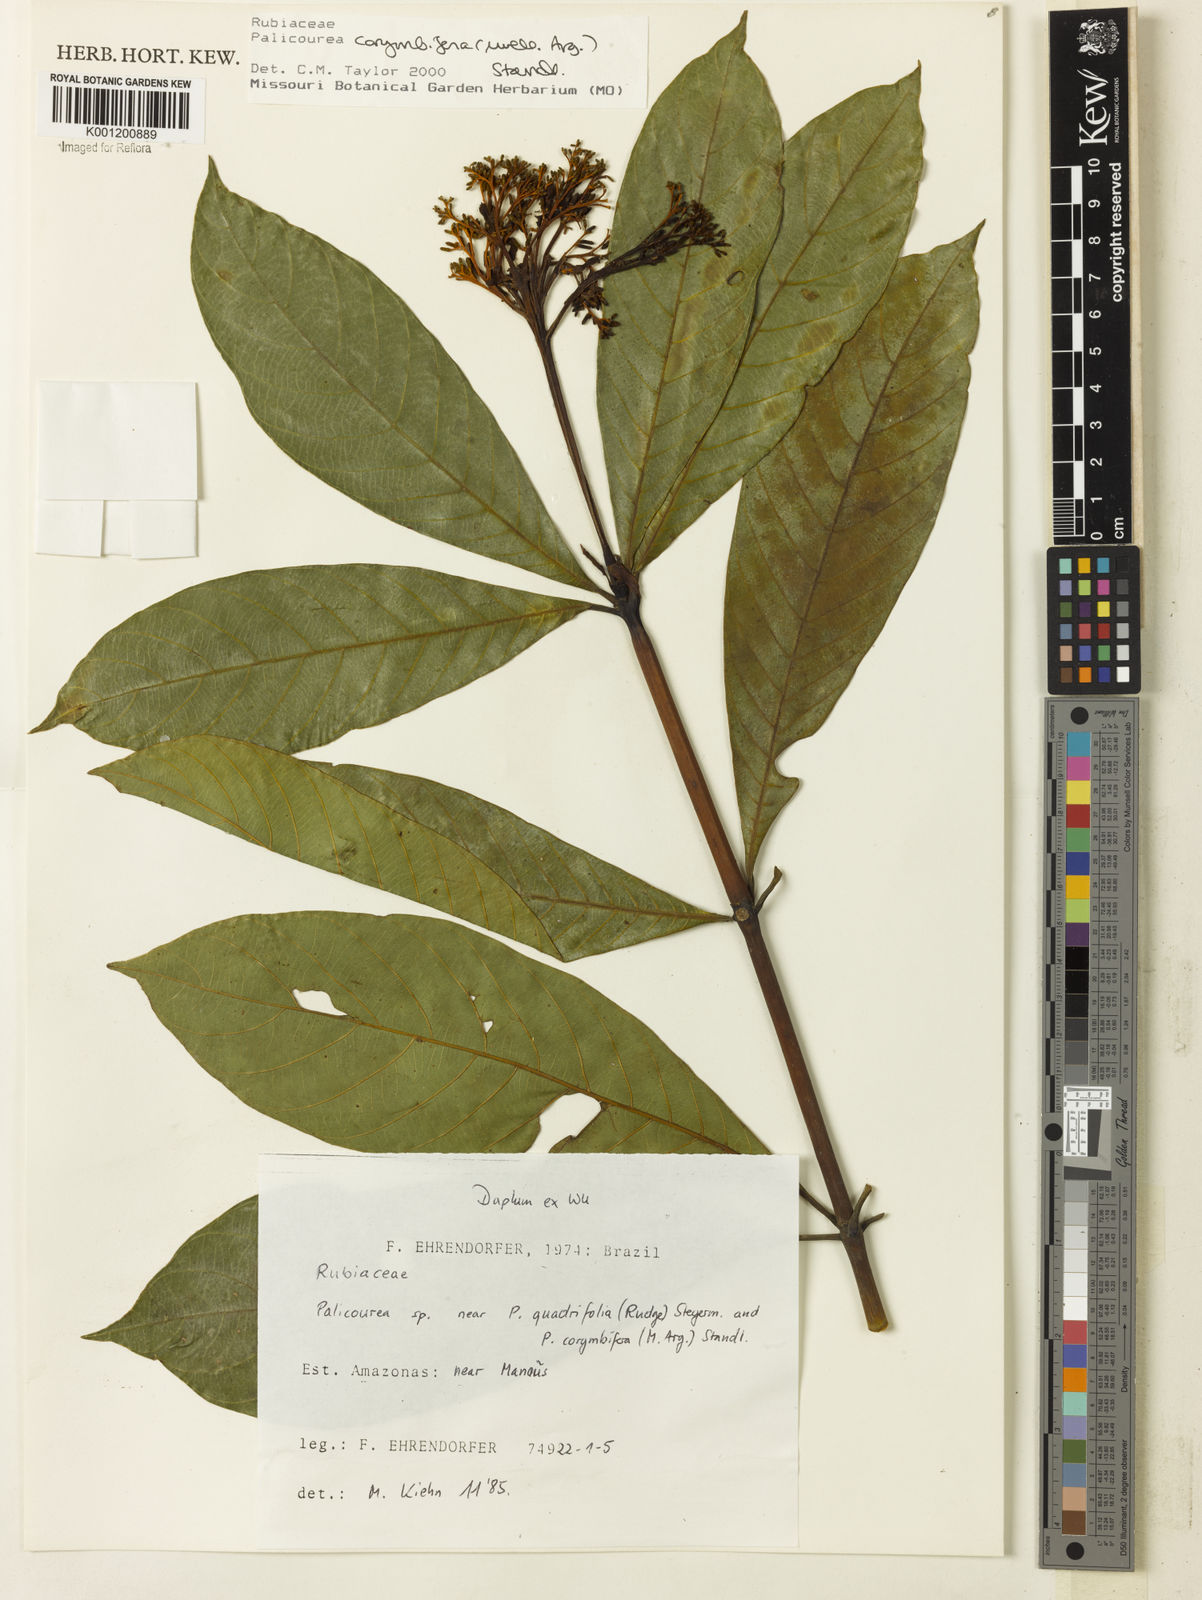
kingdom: Plantae
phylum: Tracheophyta
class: Magnoliopsida
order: Gentianales
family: Rubiaceae
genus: Palicourea
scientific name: Palicourea
